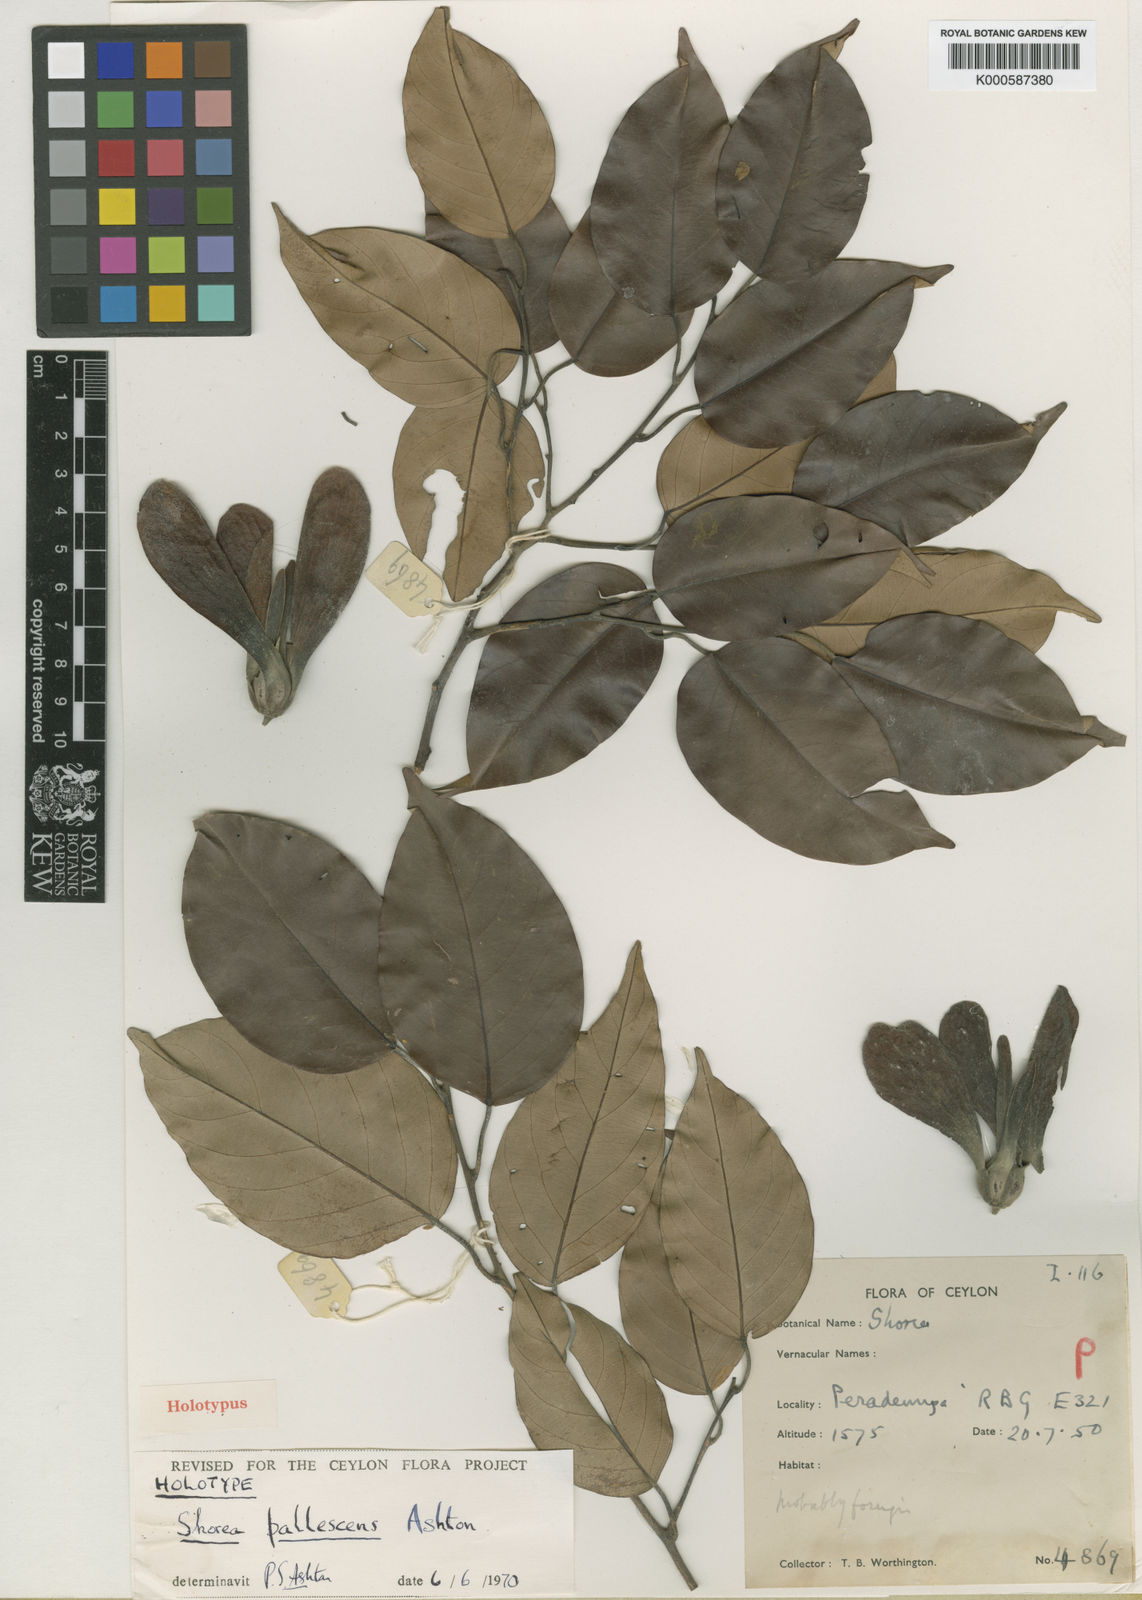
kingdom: Plantae
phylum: Tracheophyta
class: Magnoliopsida
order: Malvales
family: Dipterocarpaceae
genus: Shorea
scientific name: Shorea pallescens
